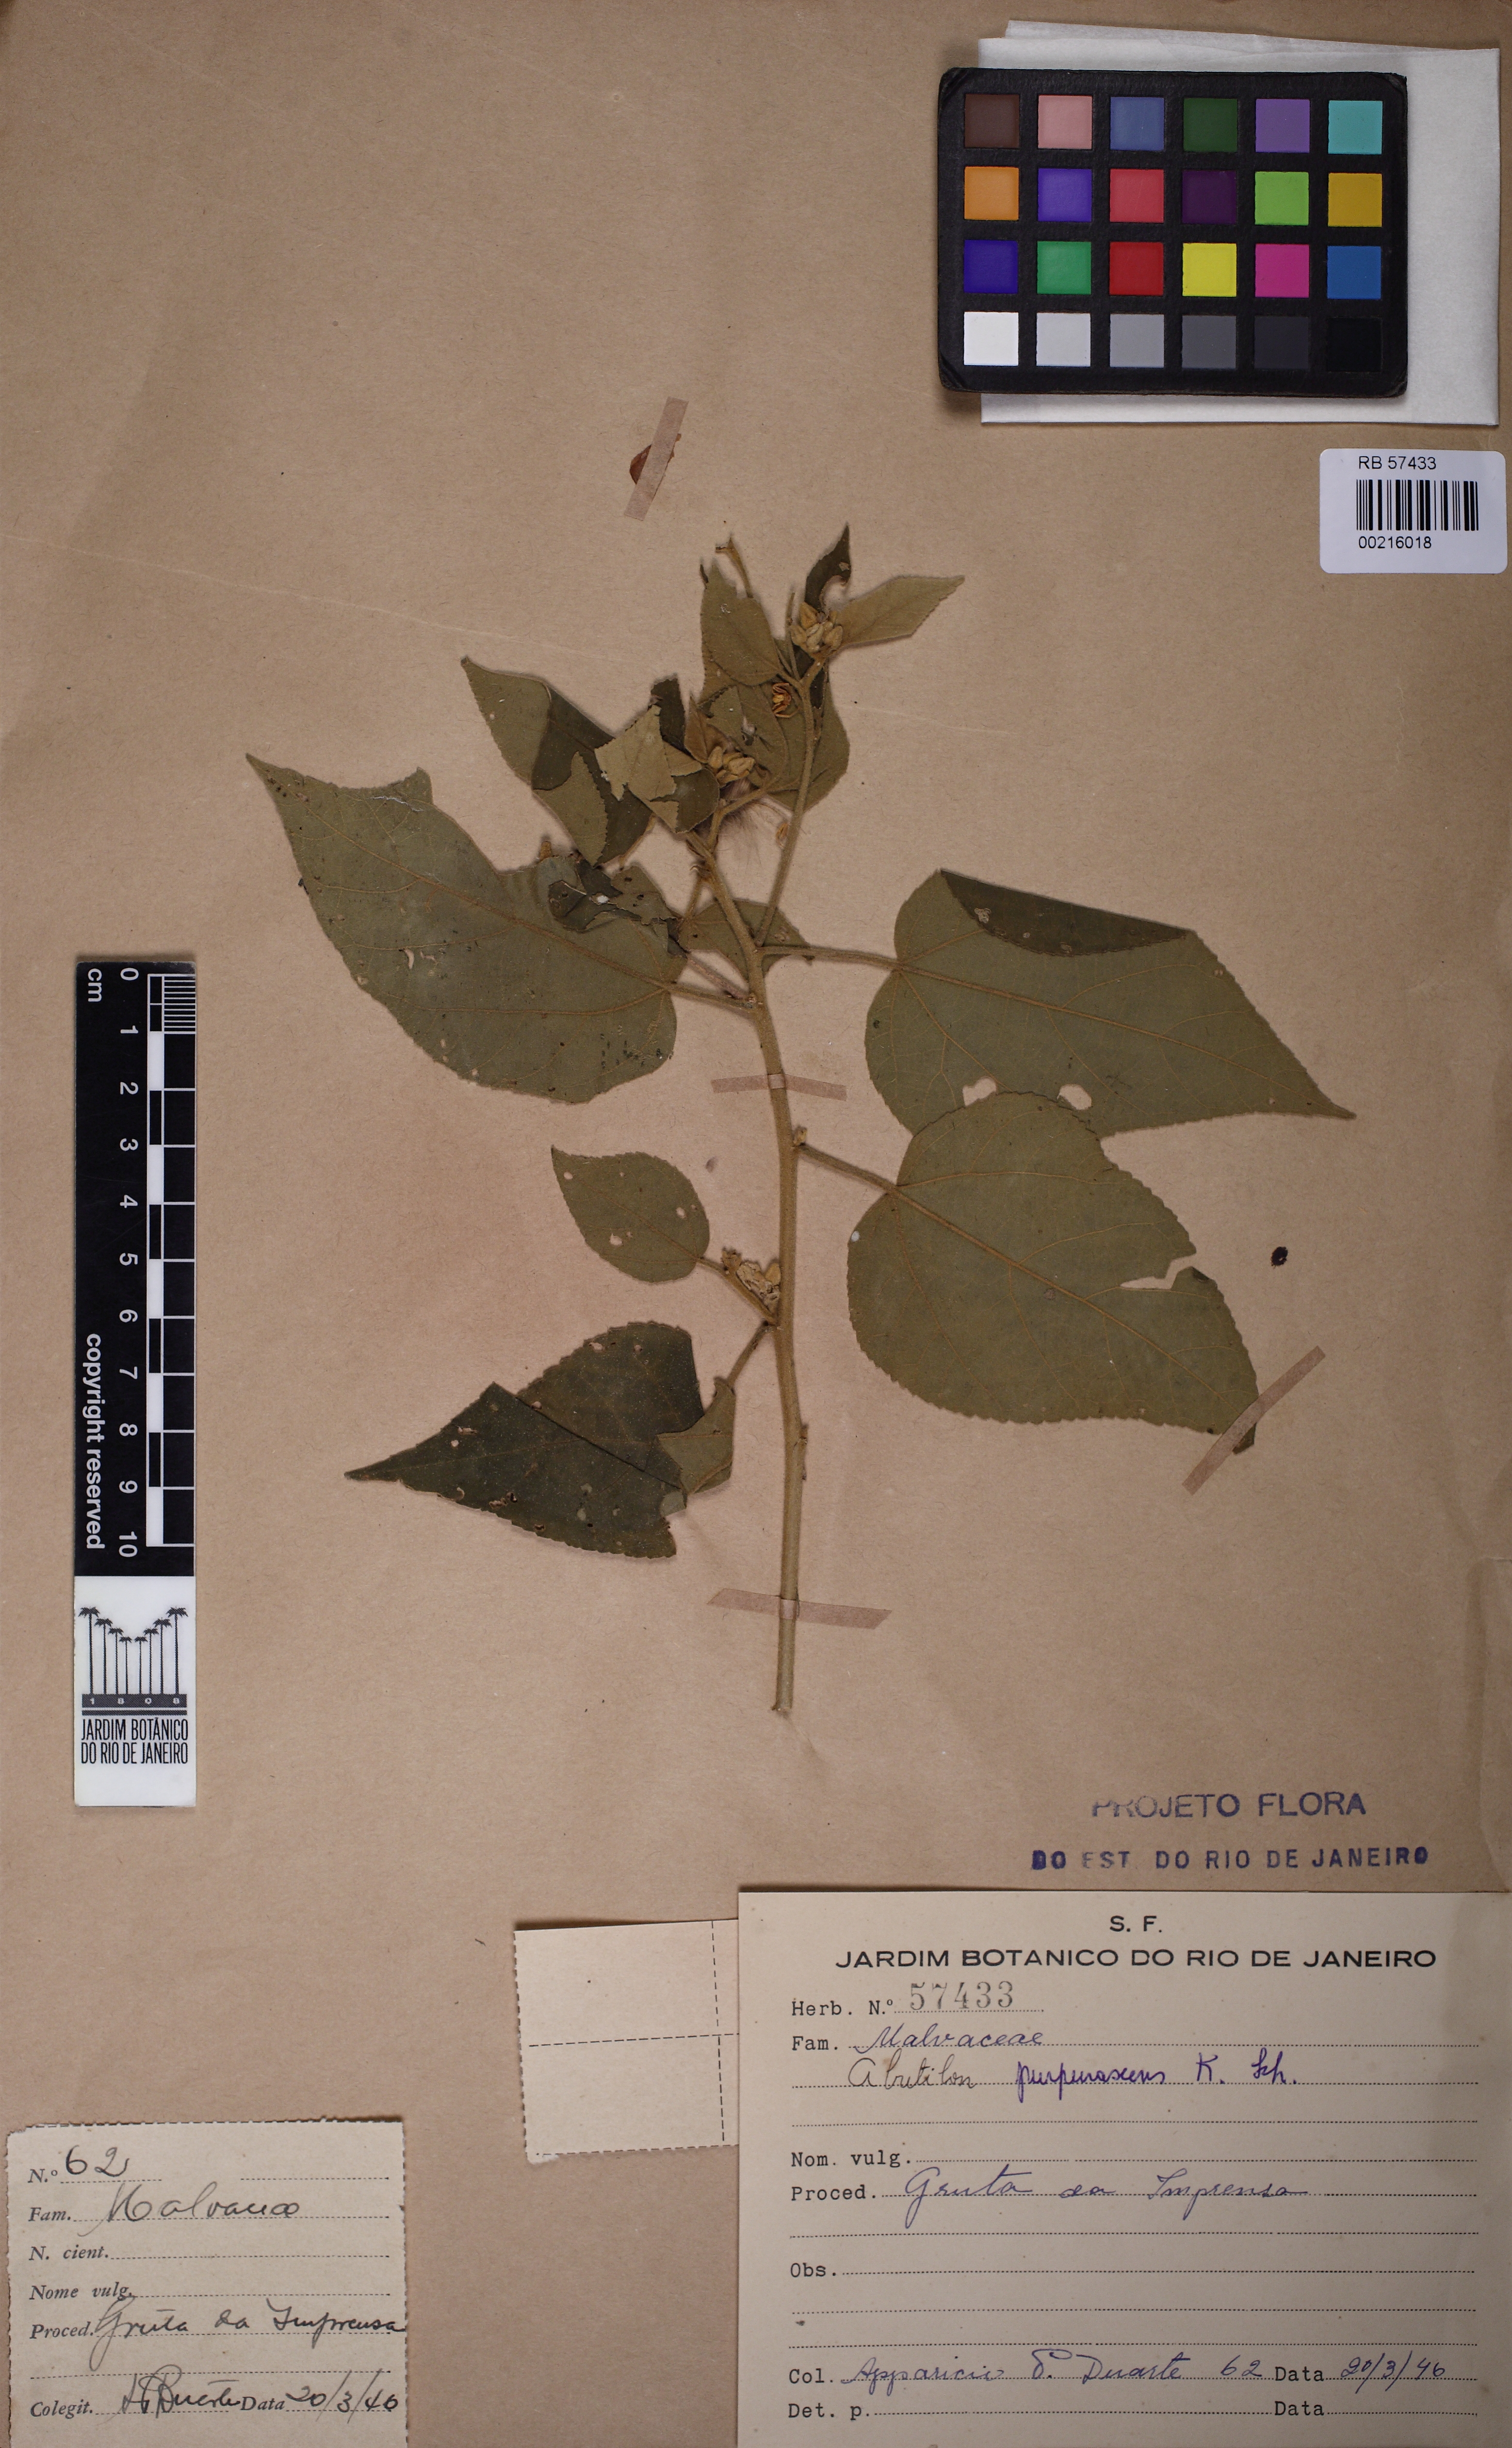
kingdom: Plantae
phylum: Tracheophyta
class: Magnoliopsida
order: Malvales
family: Malvaceae
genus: Bakeridesia
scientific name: Bakeridesia esculenta
